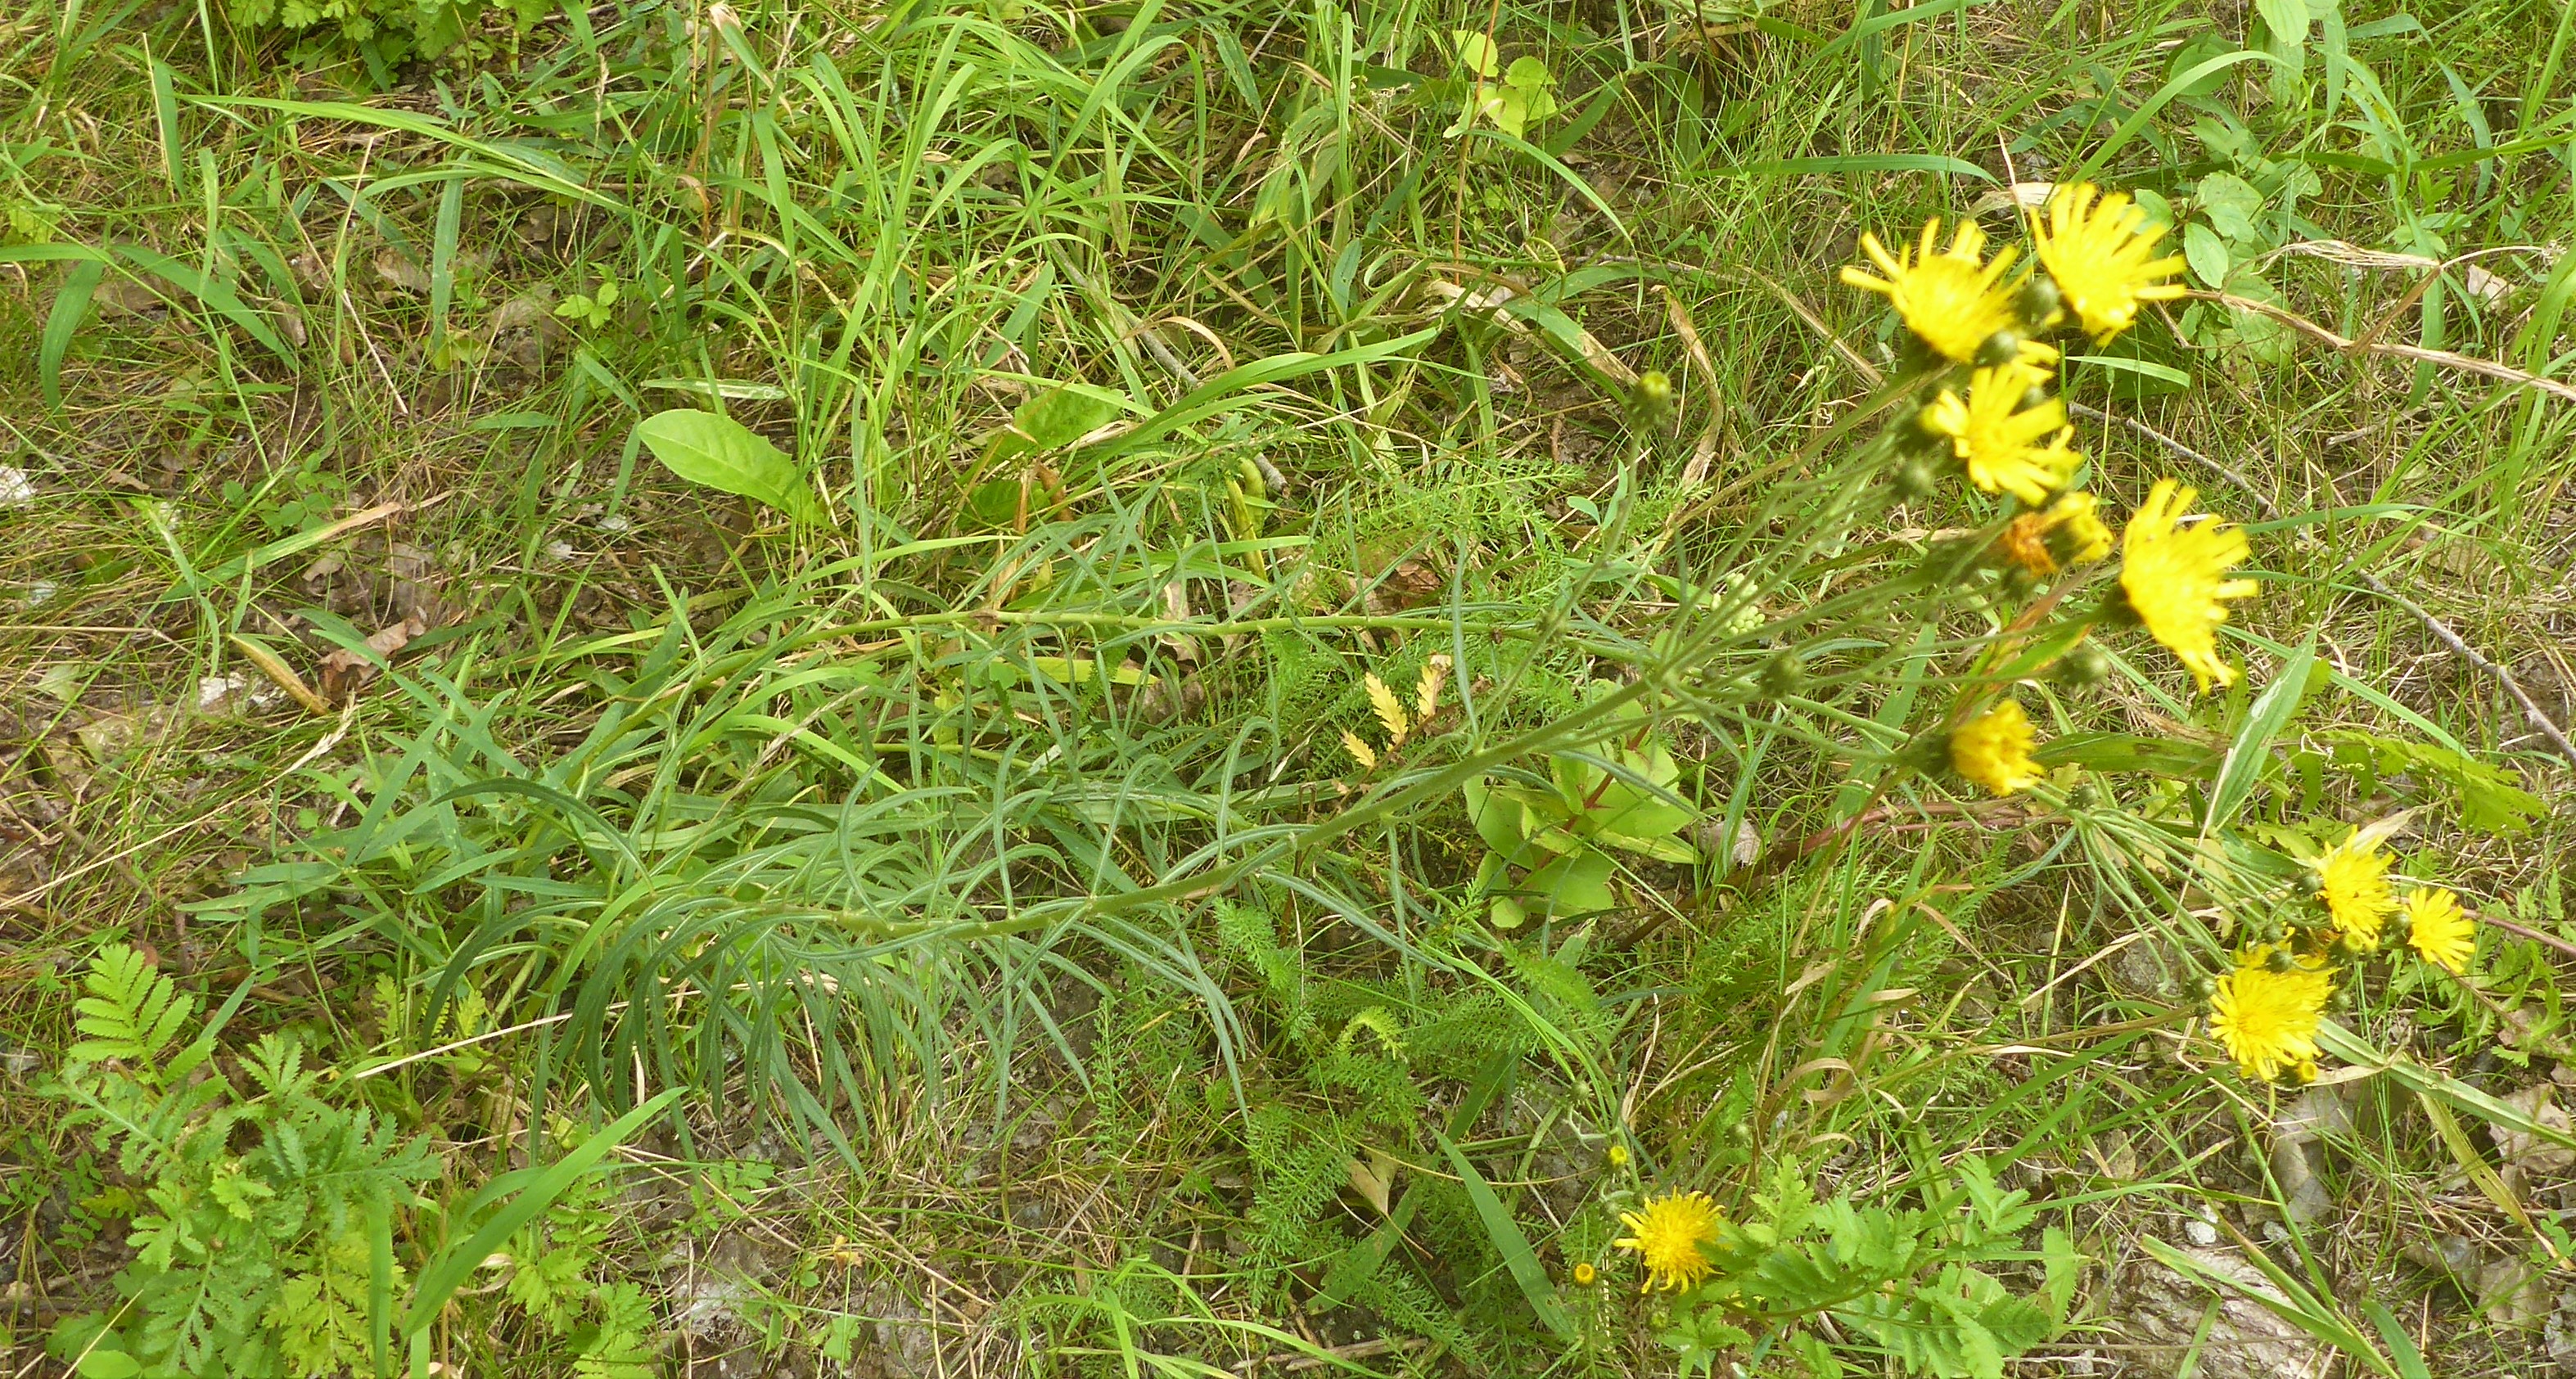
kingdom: Plantae
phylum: Tracheophyta
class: Magnoliopsida
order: Asterales
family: Asteraceae
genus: Hieracium
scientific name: Hieracium umbellatum
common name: Smalbladet høgeurt
